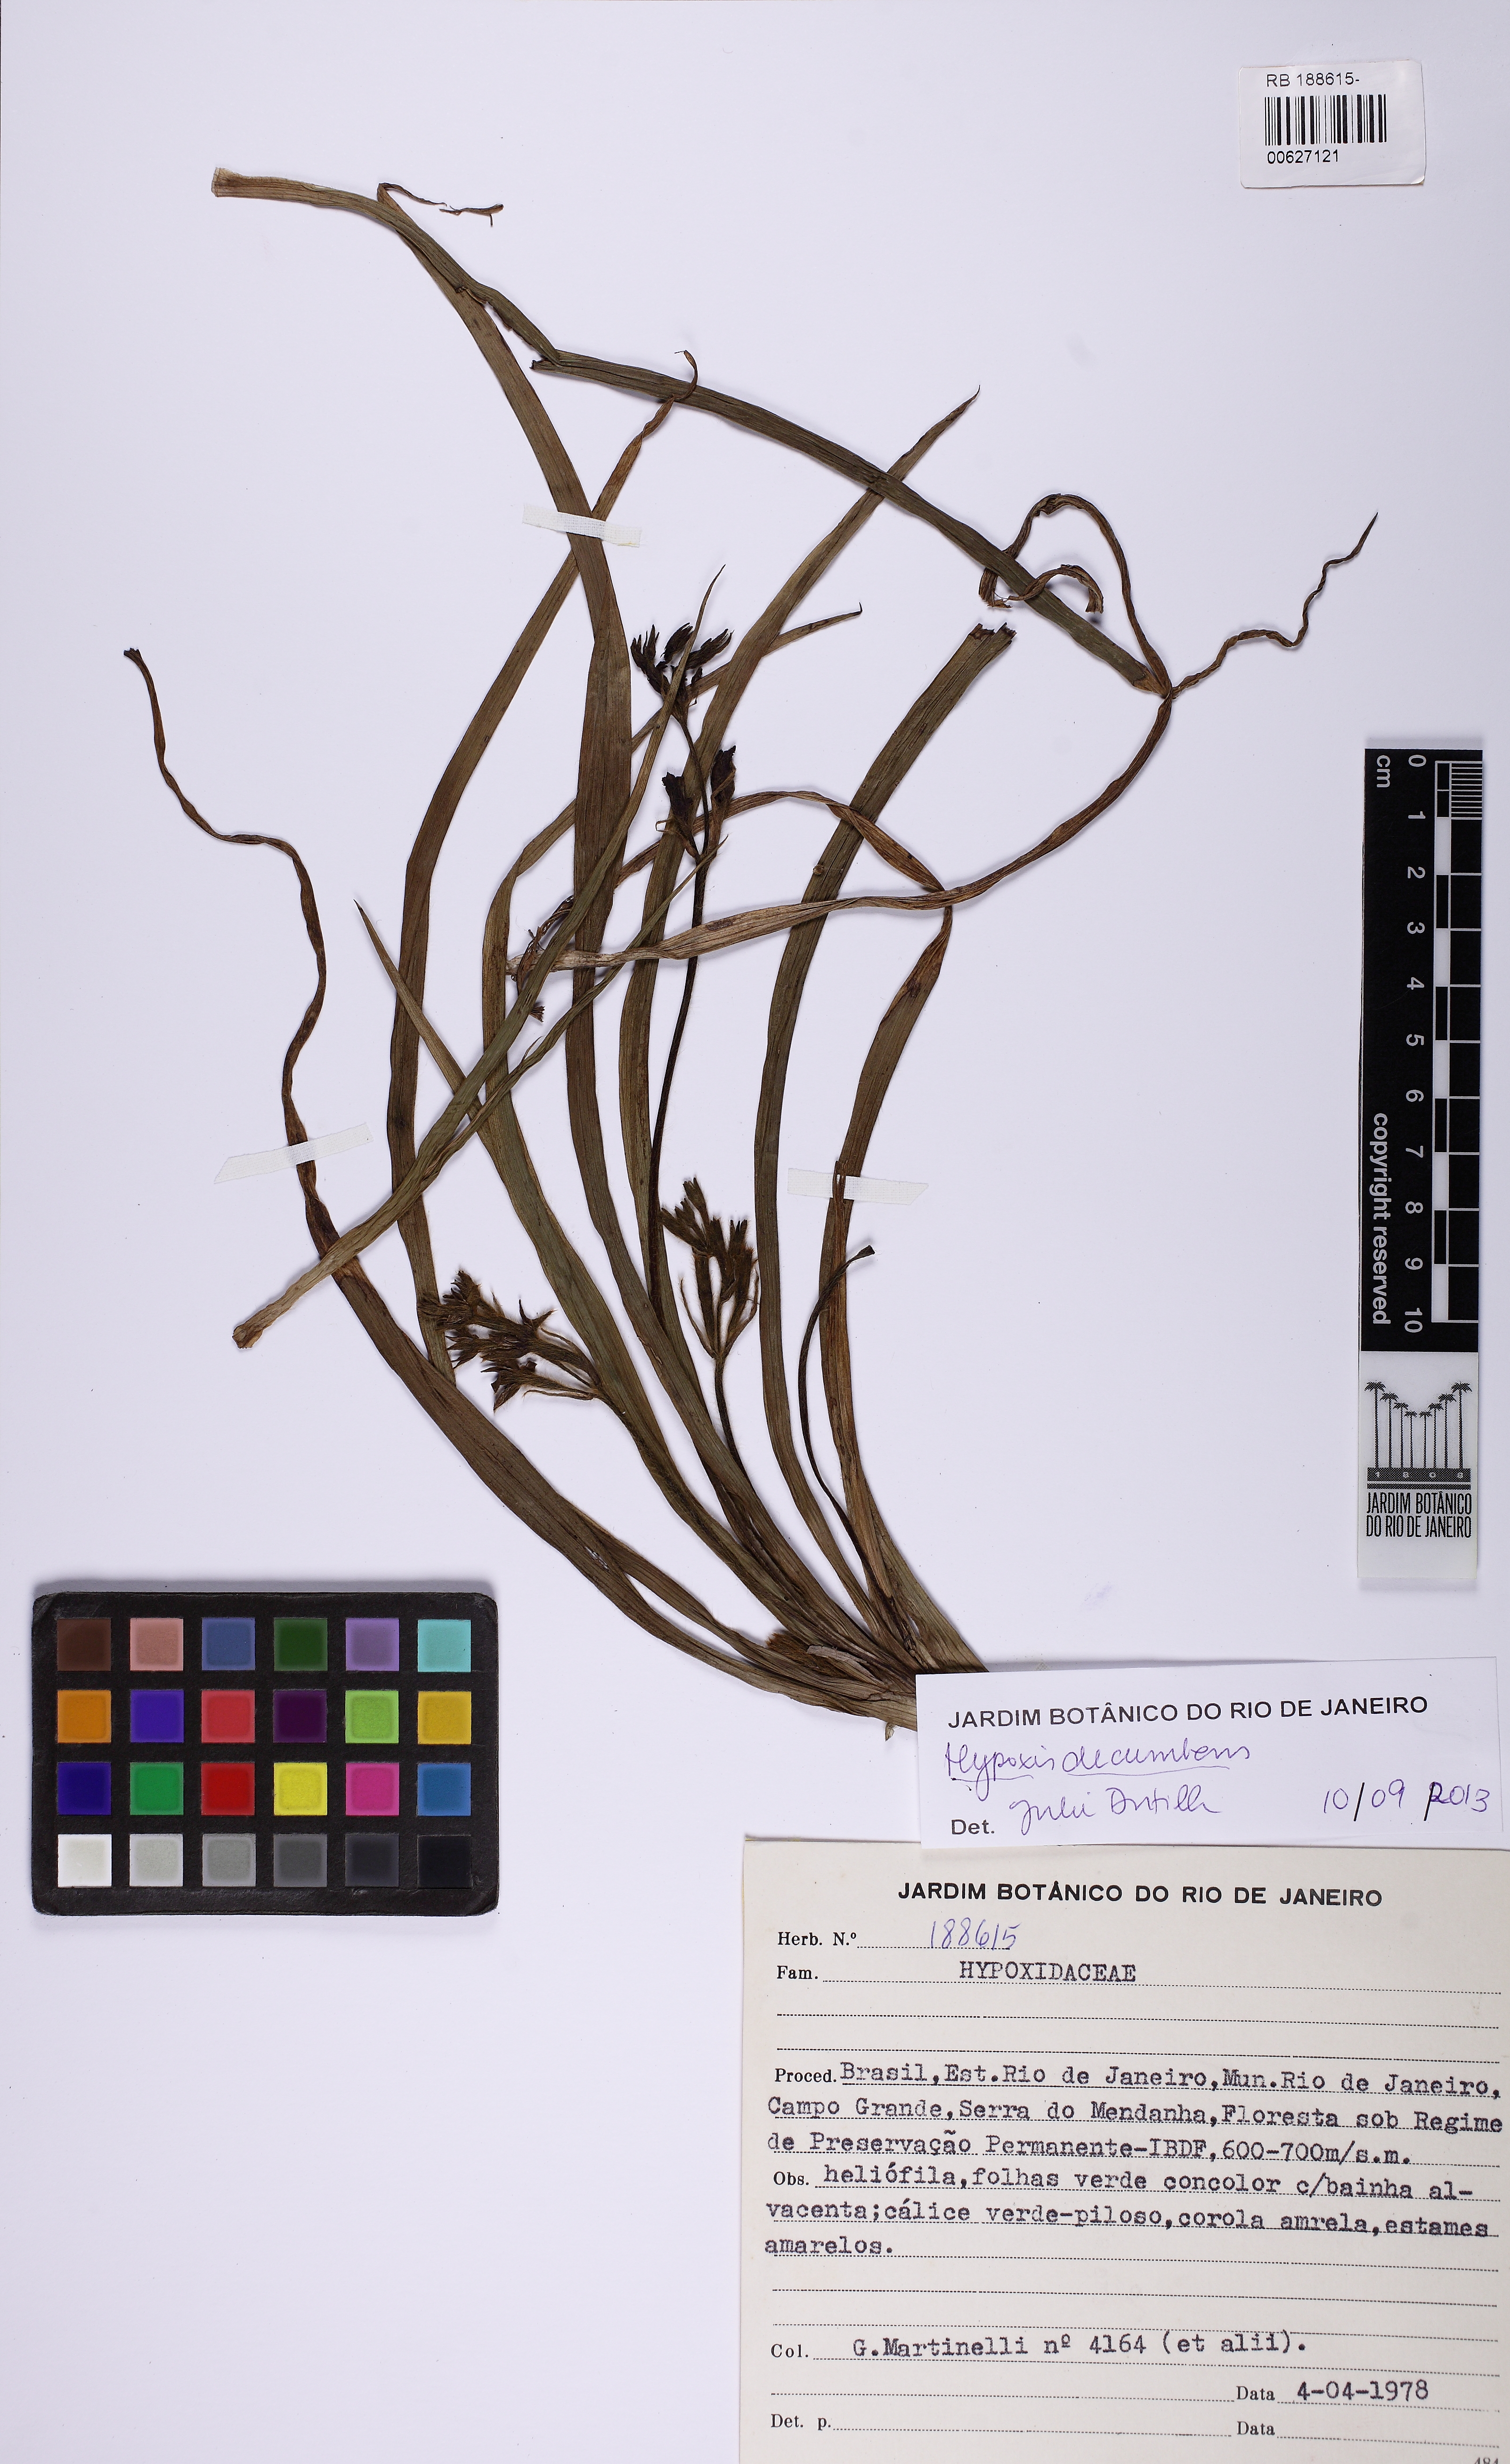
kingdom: Plantae
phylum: Tracheophyta
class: Liliopsida
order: Asparagales
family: Hypoxidaceae
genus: Hypoxis
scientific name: Hypoxis decumbens
